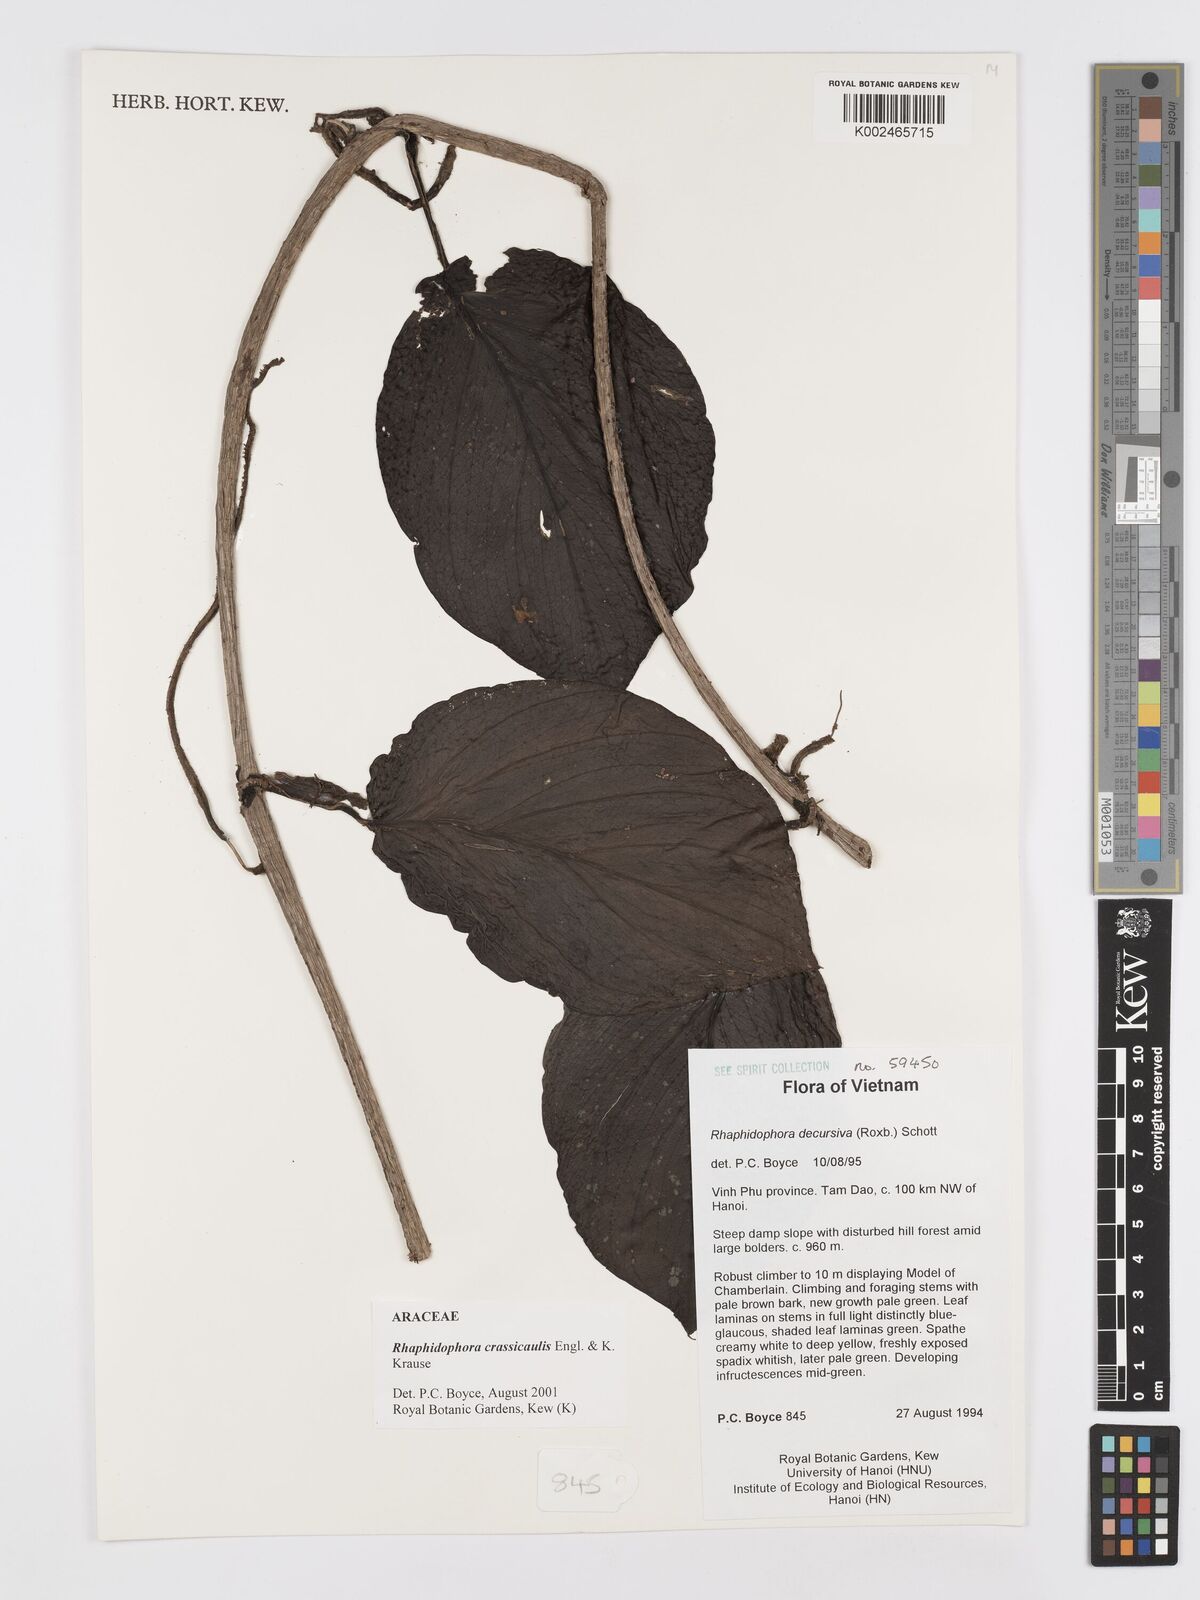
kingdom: Plantae
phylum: Tracheophyta
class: Liliopsida
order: Alismatales
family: Araceae
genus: Rhaphidophora
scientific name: Rhaphidophora crassicaulis
